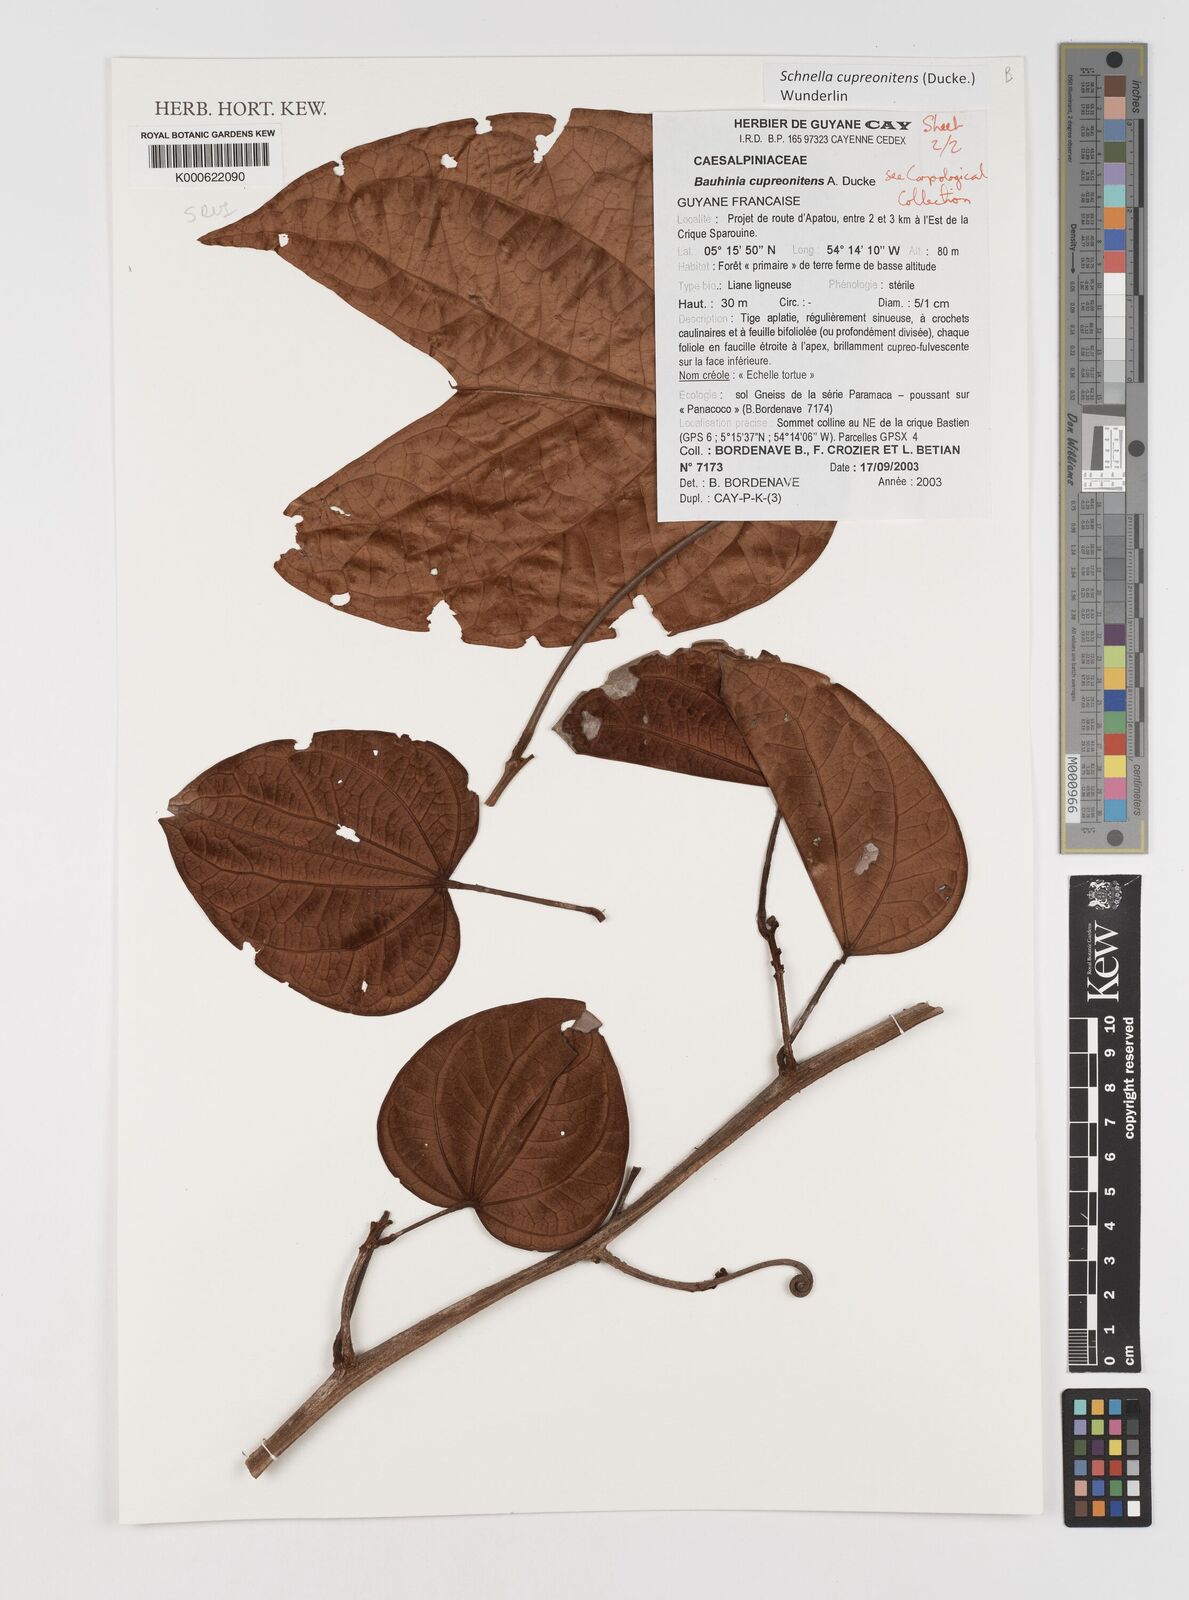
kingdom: Plantae
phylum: Tracheophyta
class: Magnoliopsida
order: Fabales
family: Fabaceae
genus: Schnella
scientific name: Schnella cupreonitens
